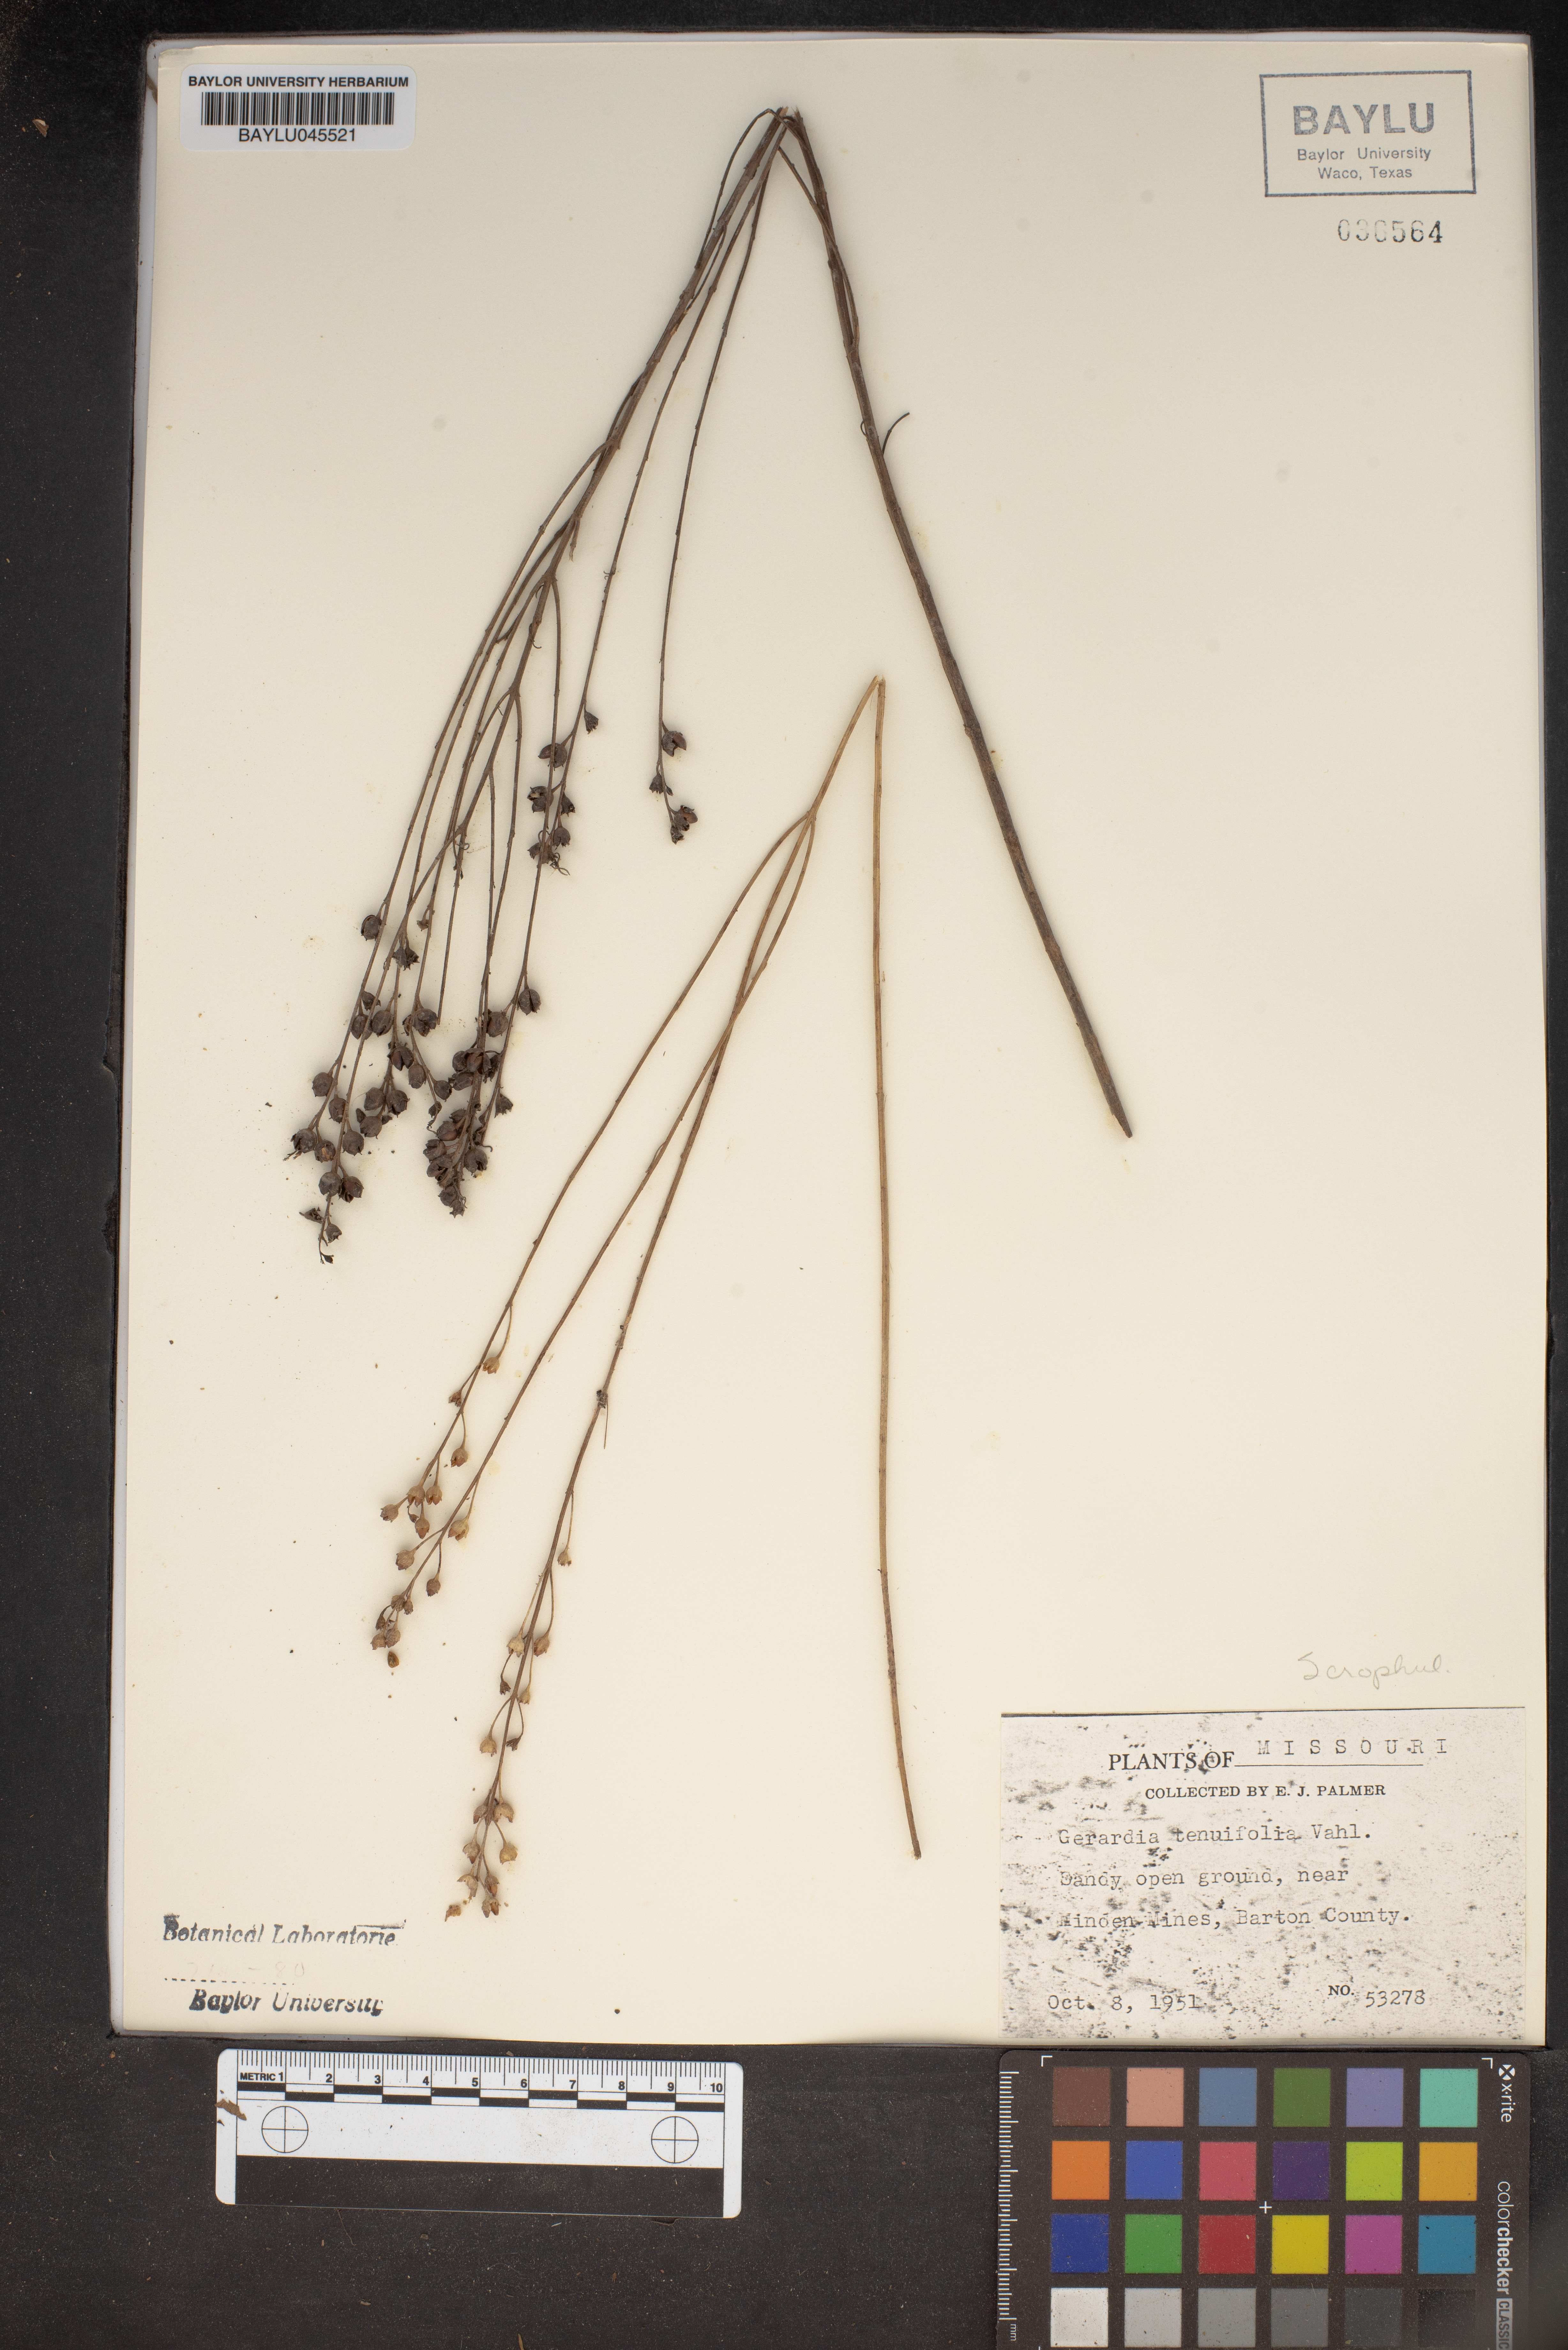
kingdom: Plantae
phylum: Tracheophyta
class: Magnoliopsida
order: Lamiales
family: Orobanchaceae
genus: Agalinis
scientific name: Agalinis tenuifolia
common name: Slender agalinis
